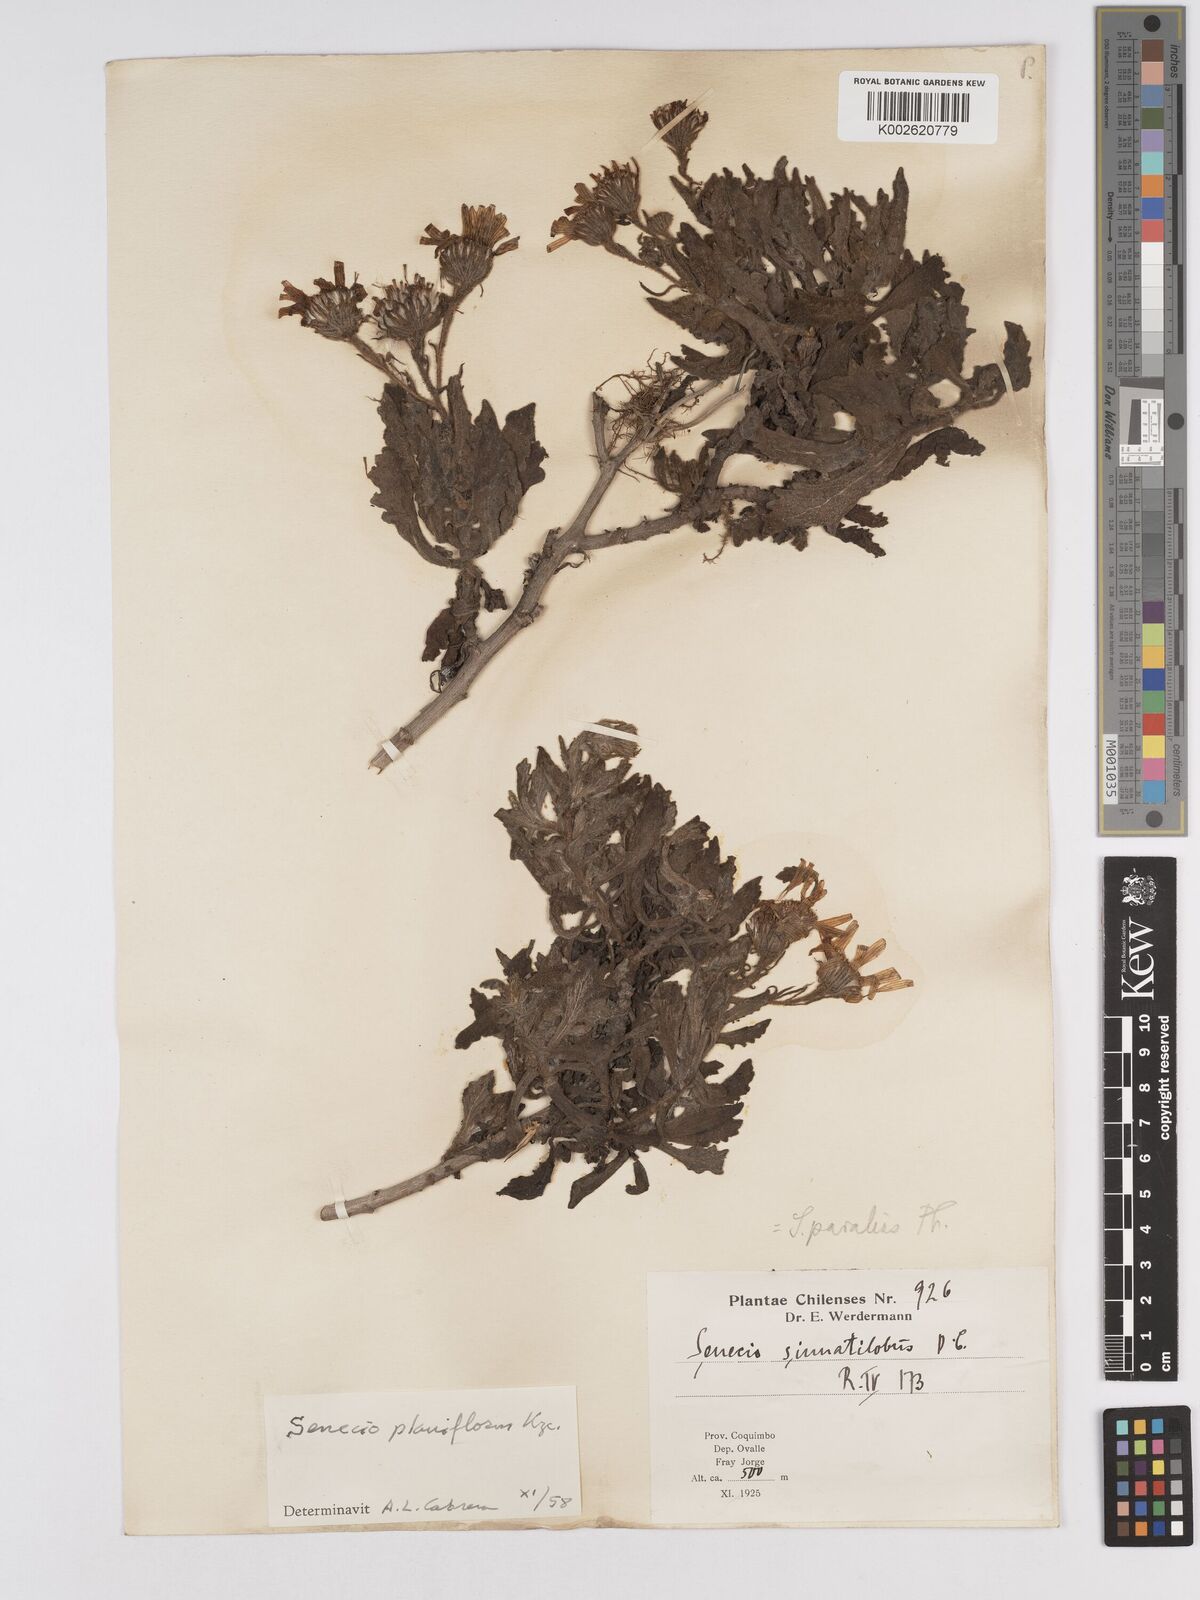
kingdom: Plantae
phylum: Tracheophyta
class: Magnoliopsida
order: Asterales
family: Asteraceae
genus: Senecio
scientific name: Senecio planiflorus
